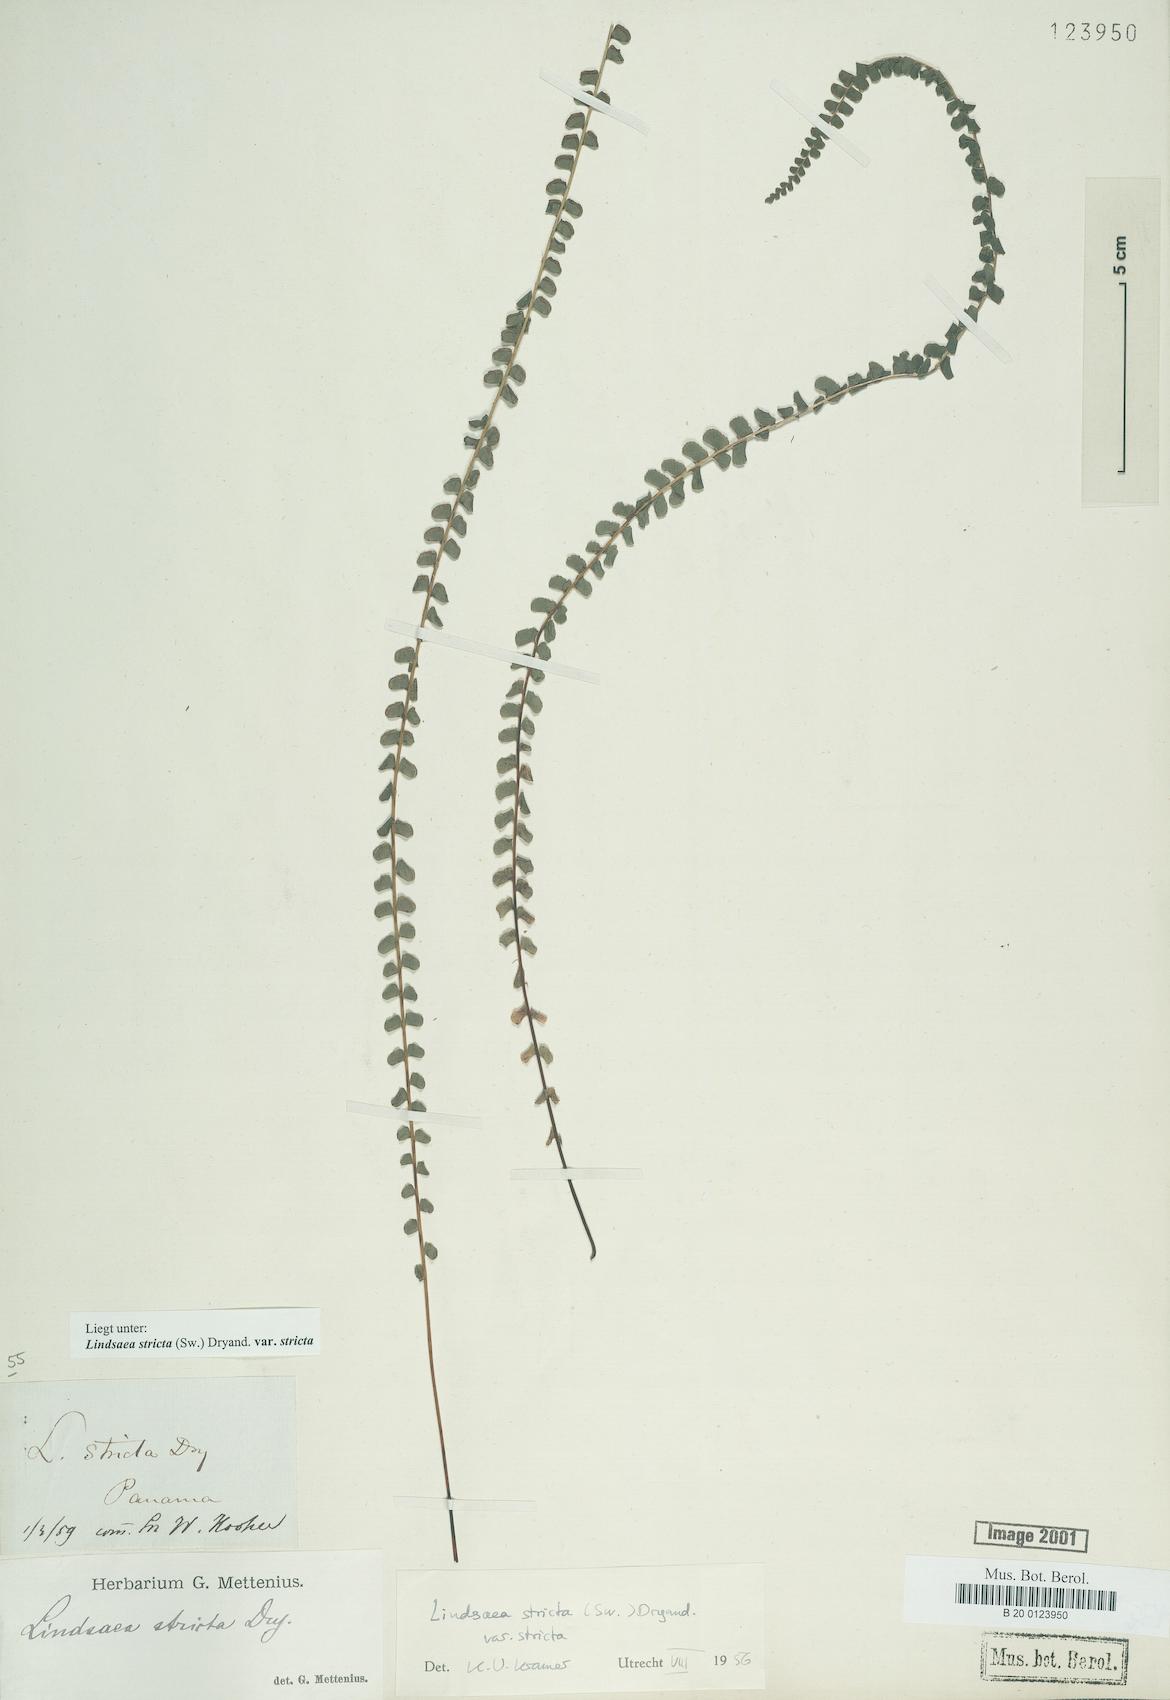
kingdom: Plantae
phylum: Tracheophyta
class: Polypodiopsida
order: Polypodiales
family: Lindsaeaceae
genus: Lindsaea
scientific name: Lindsaea stricta
